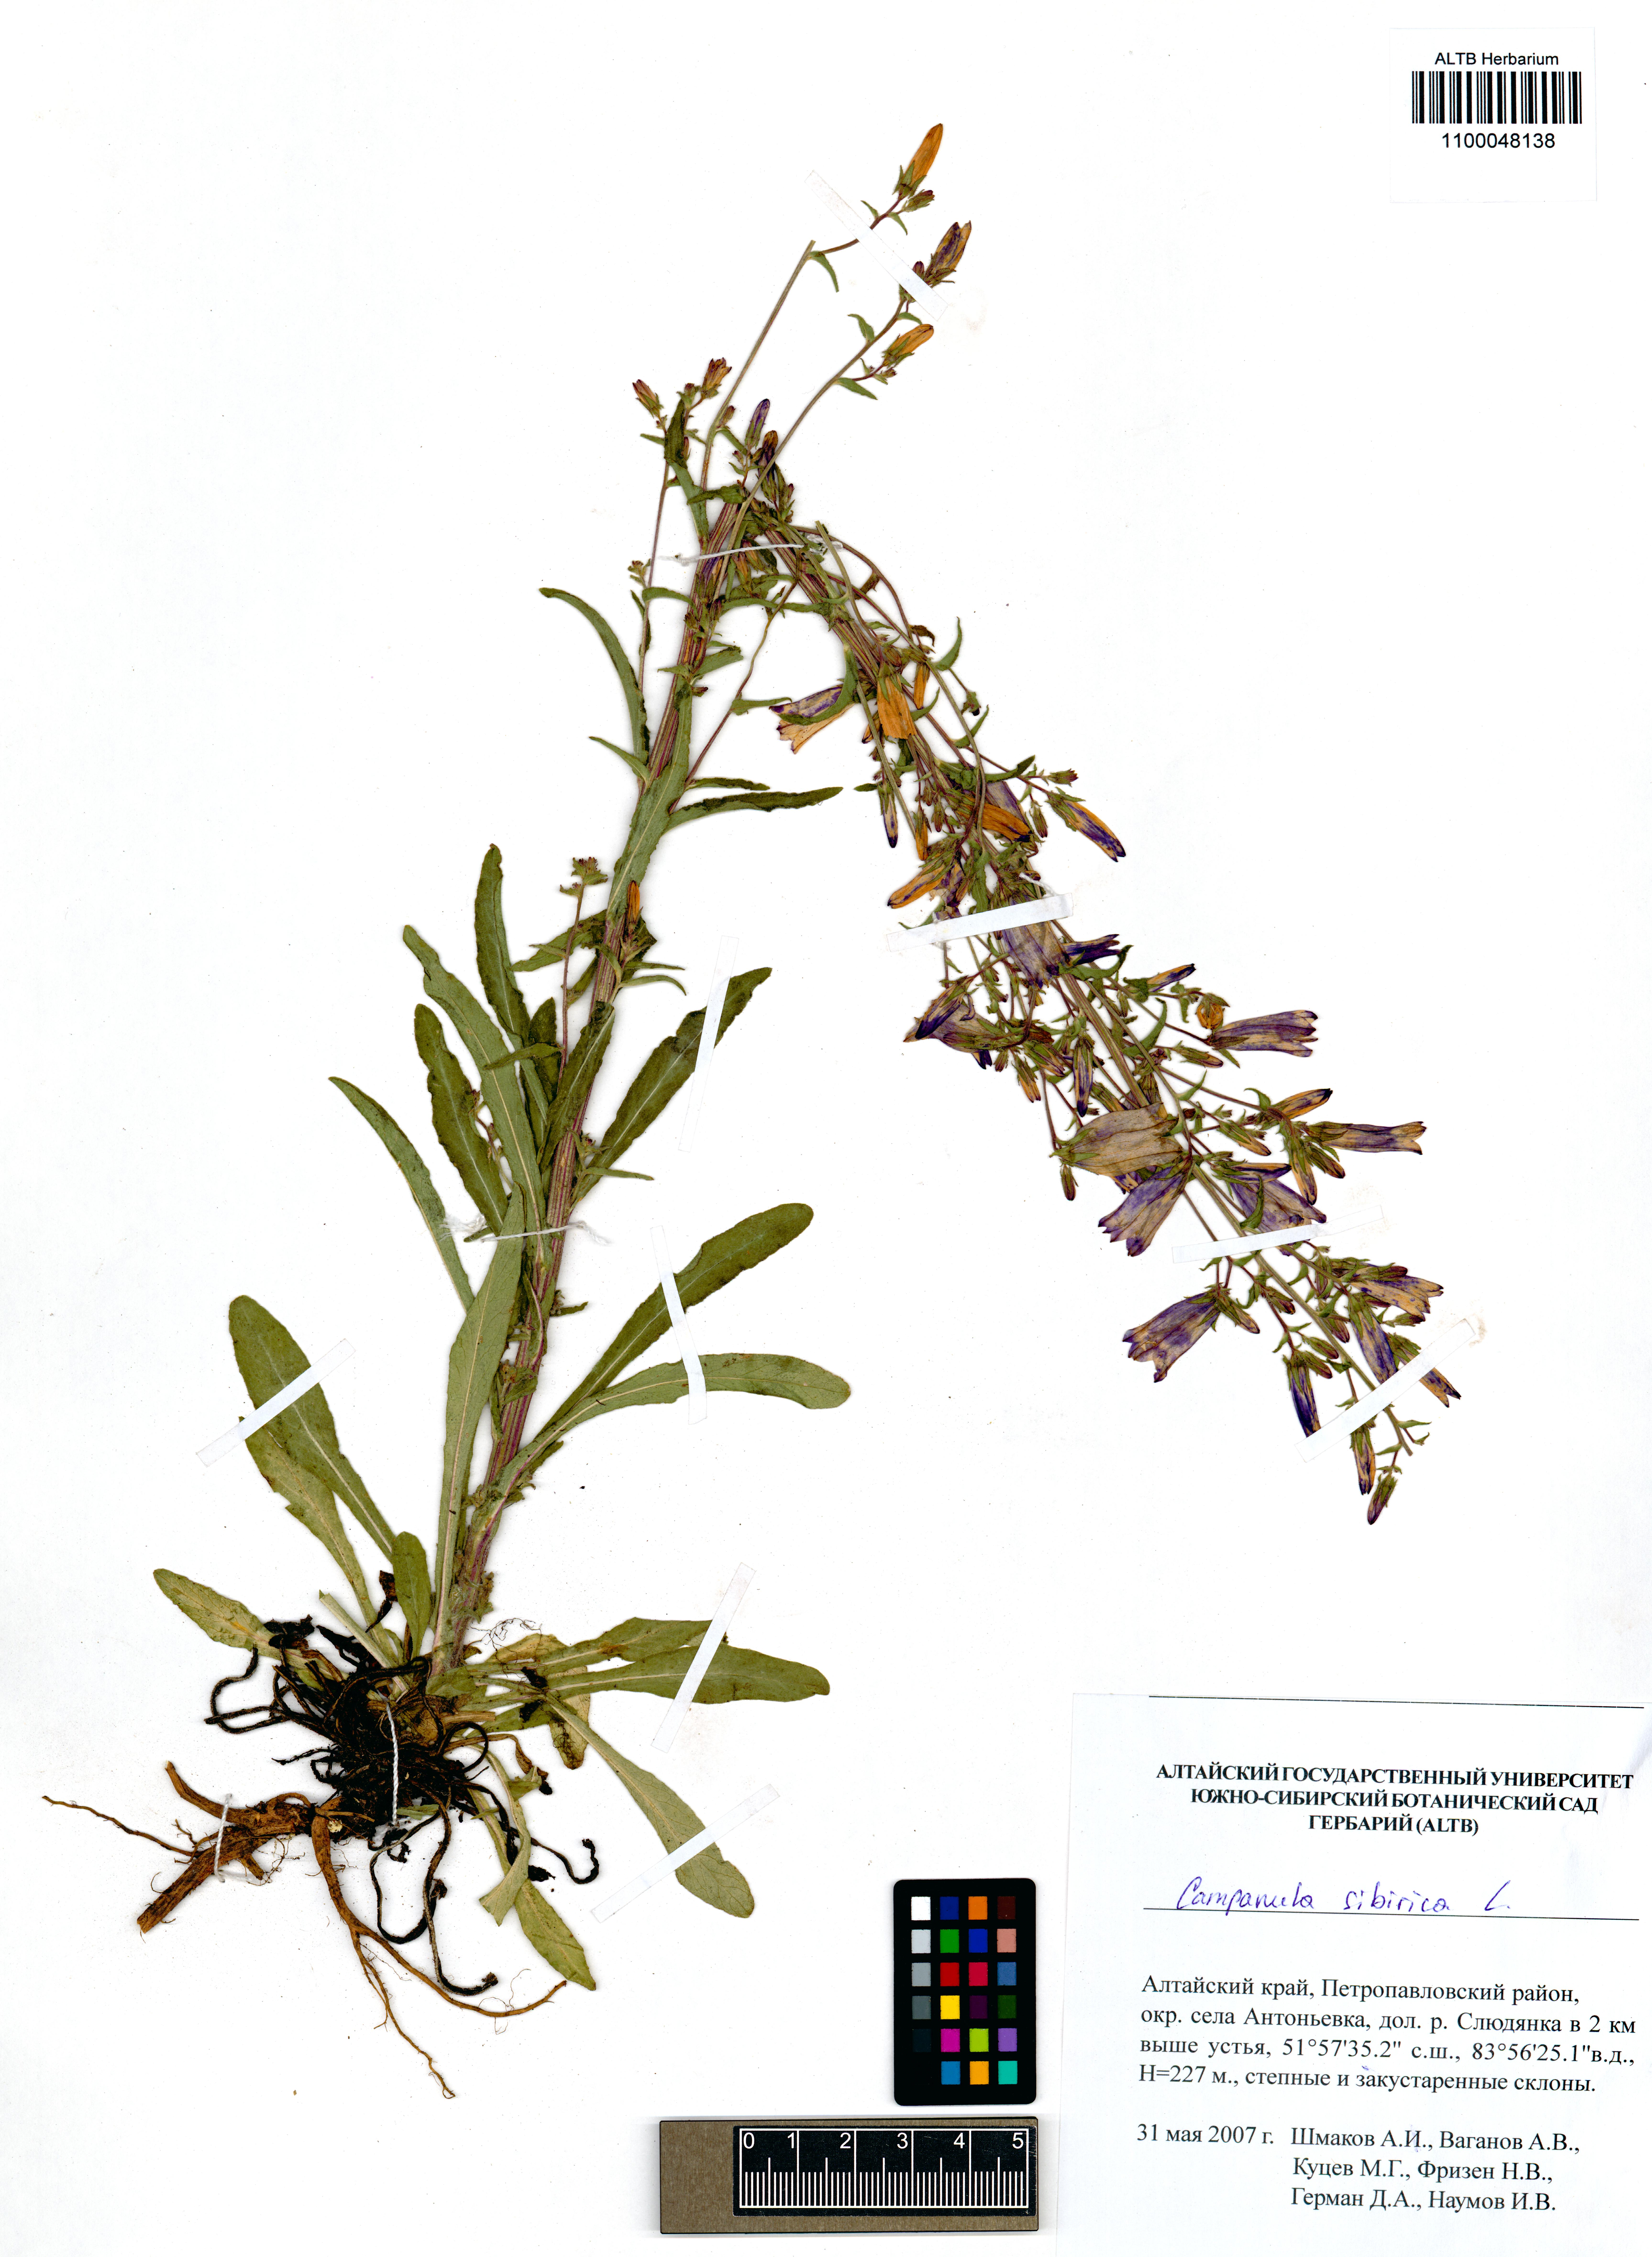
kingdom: Plantae
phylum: Tracheophyta
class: Magnoliopsida
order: Asterales
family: Campanulaceae
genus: Campanula
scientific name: Campanula sibirica
